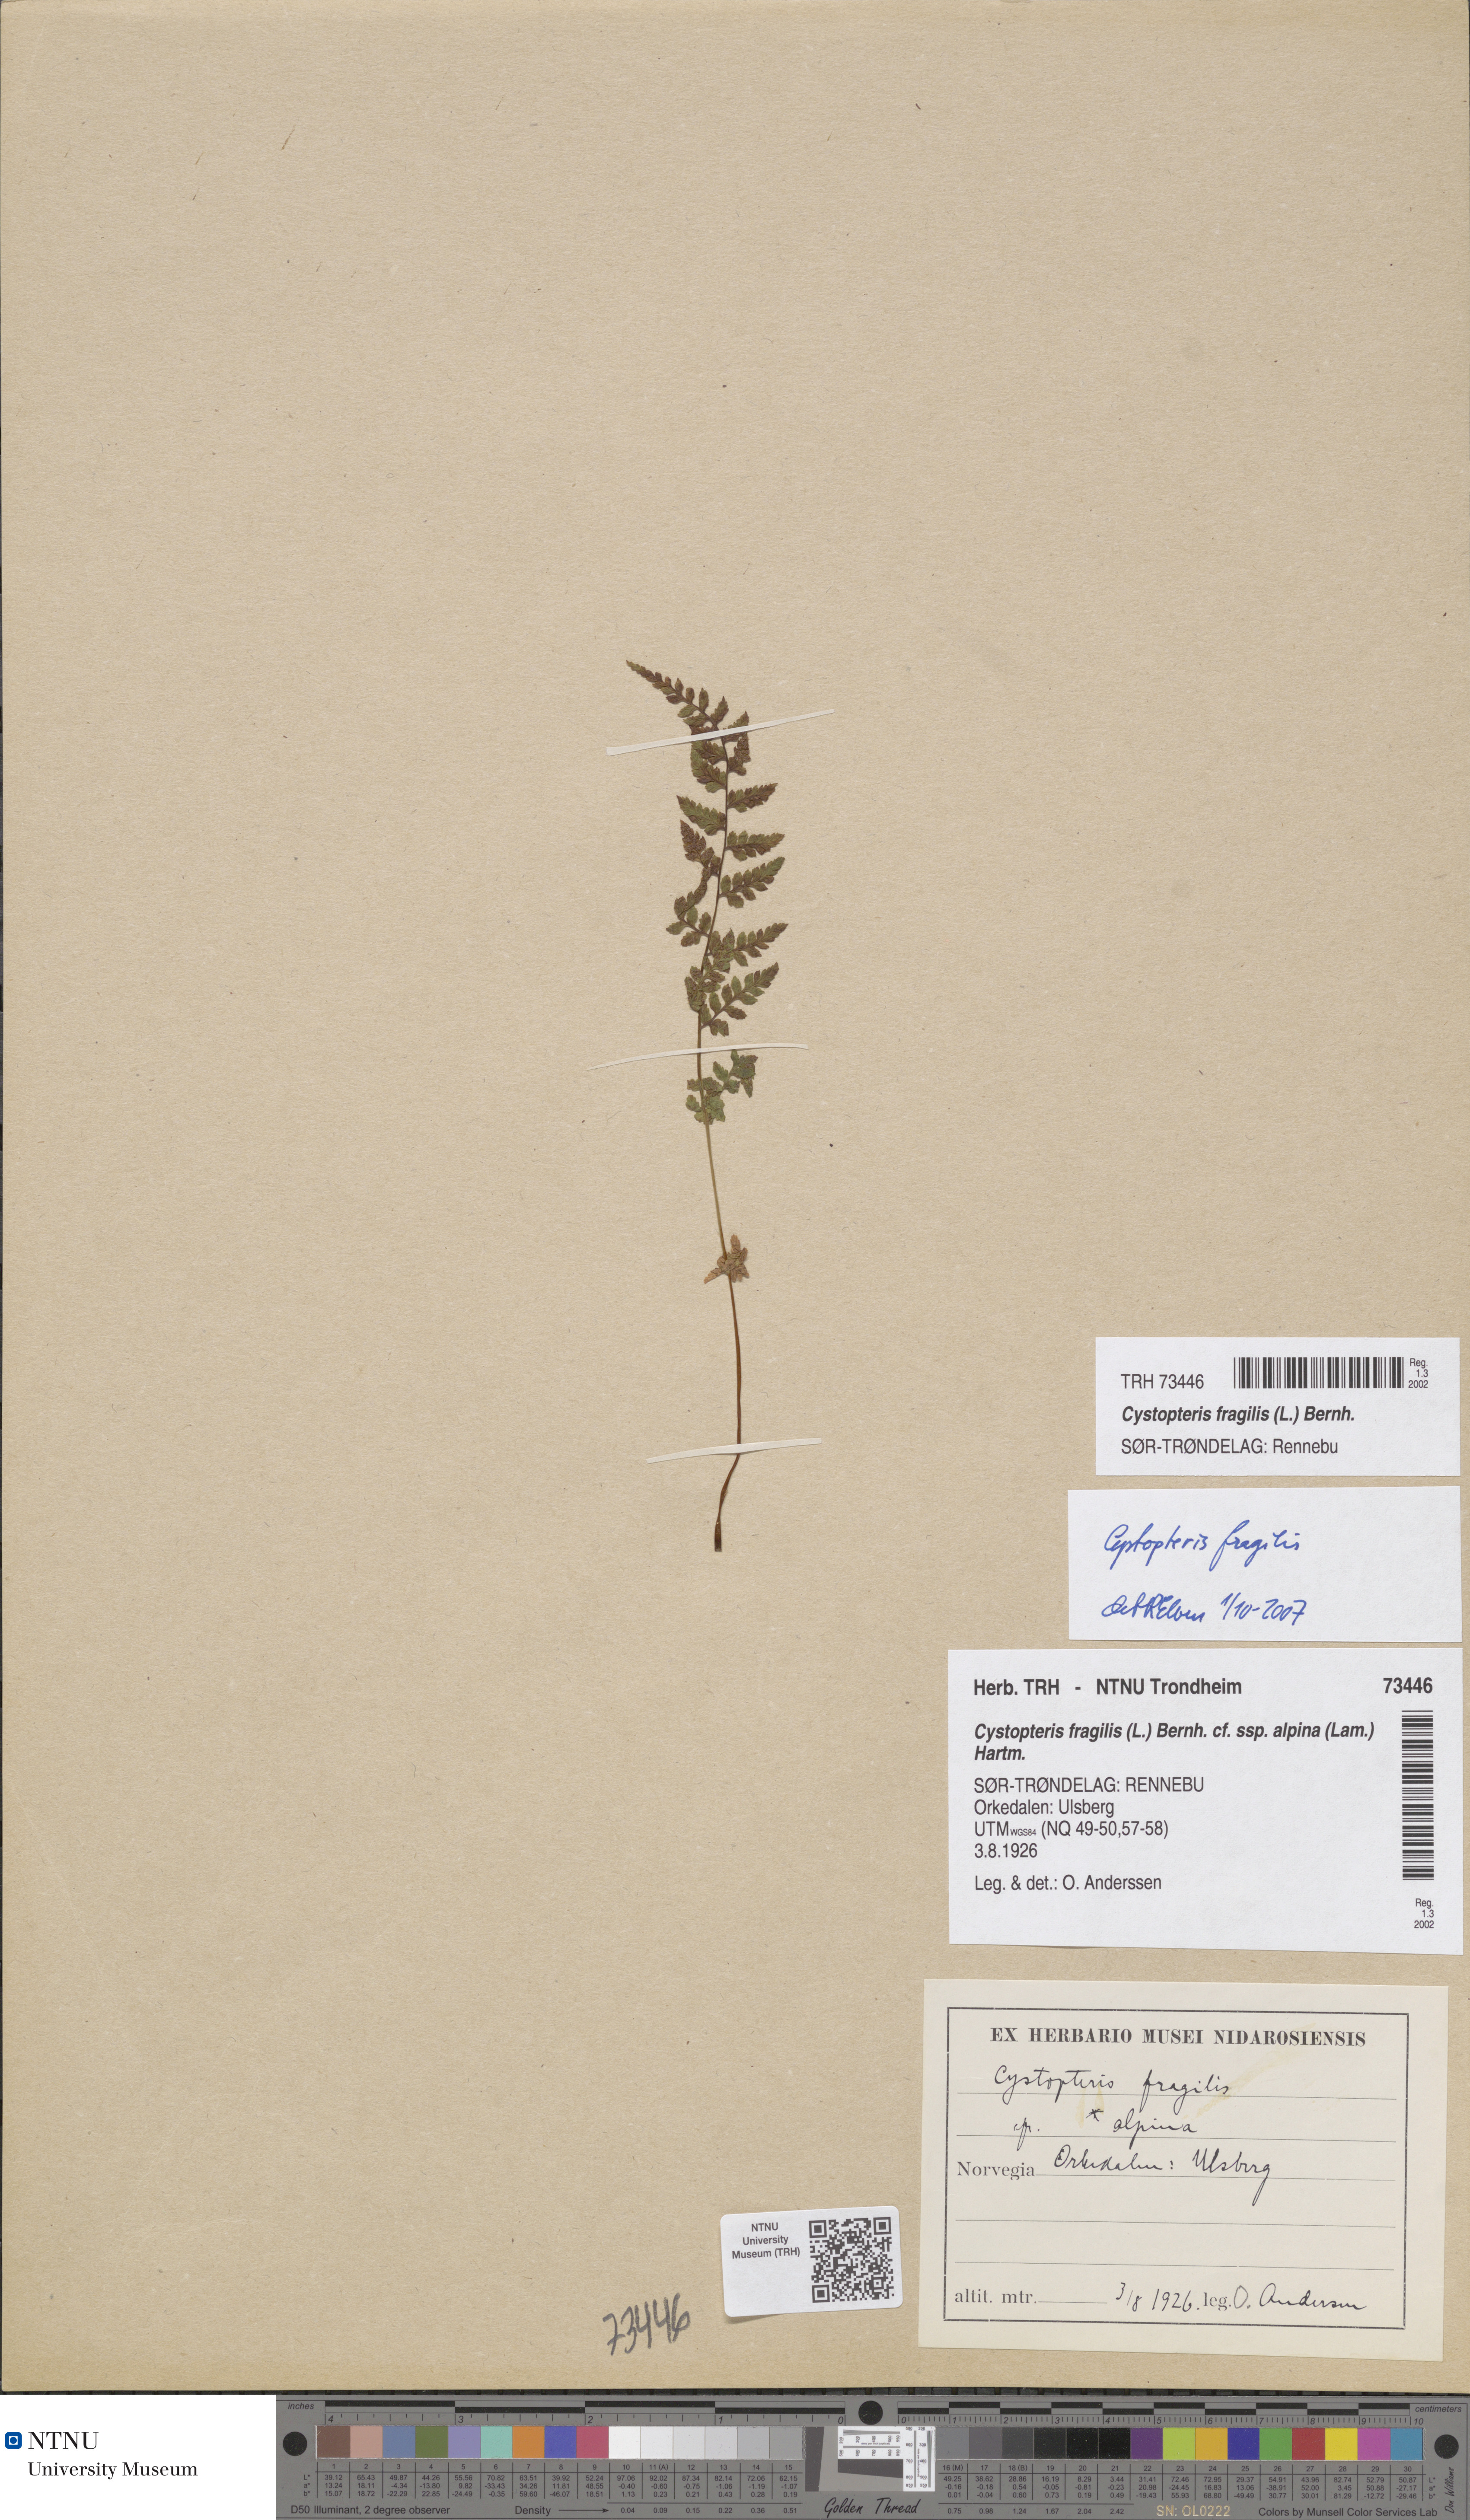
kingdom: Plantae
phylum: Tracheophyta
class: Polypodiopsida
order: Polypodiales
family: Cystopteridaceae
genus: Cystopteris
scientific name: Cystopteris fragilis
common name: Brittle bladder fern
